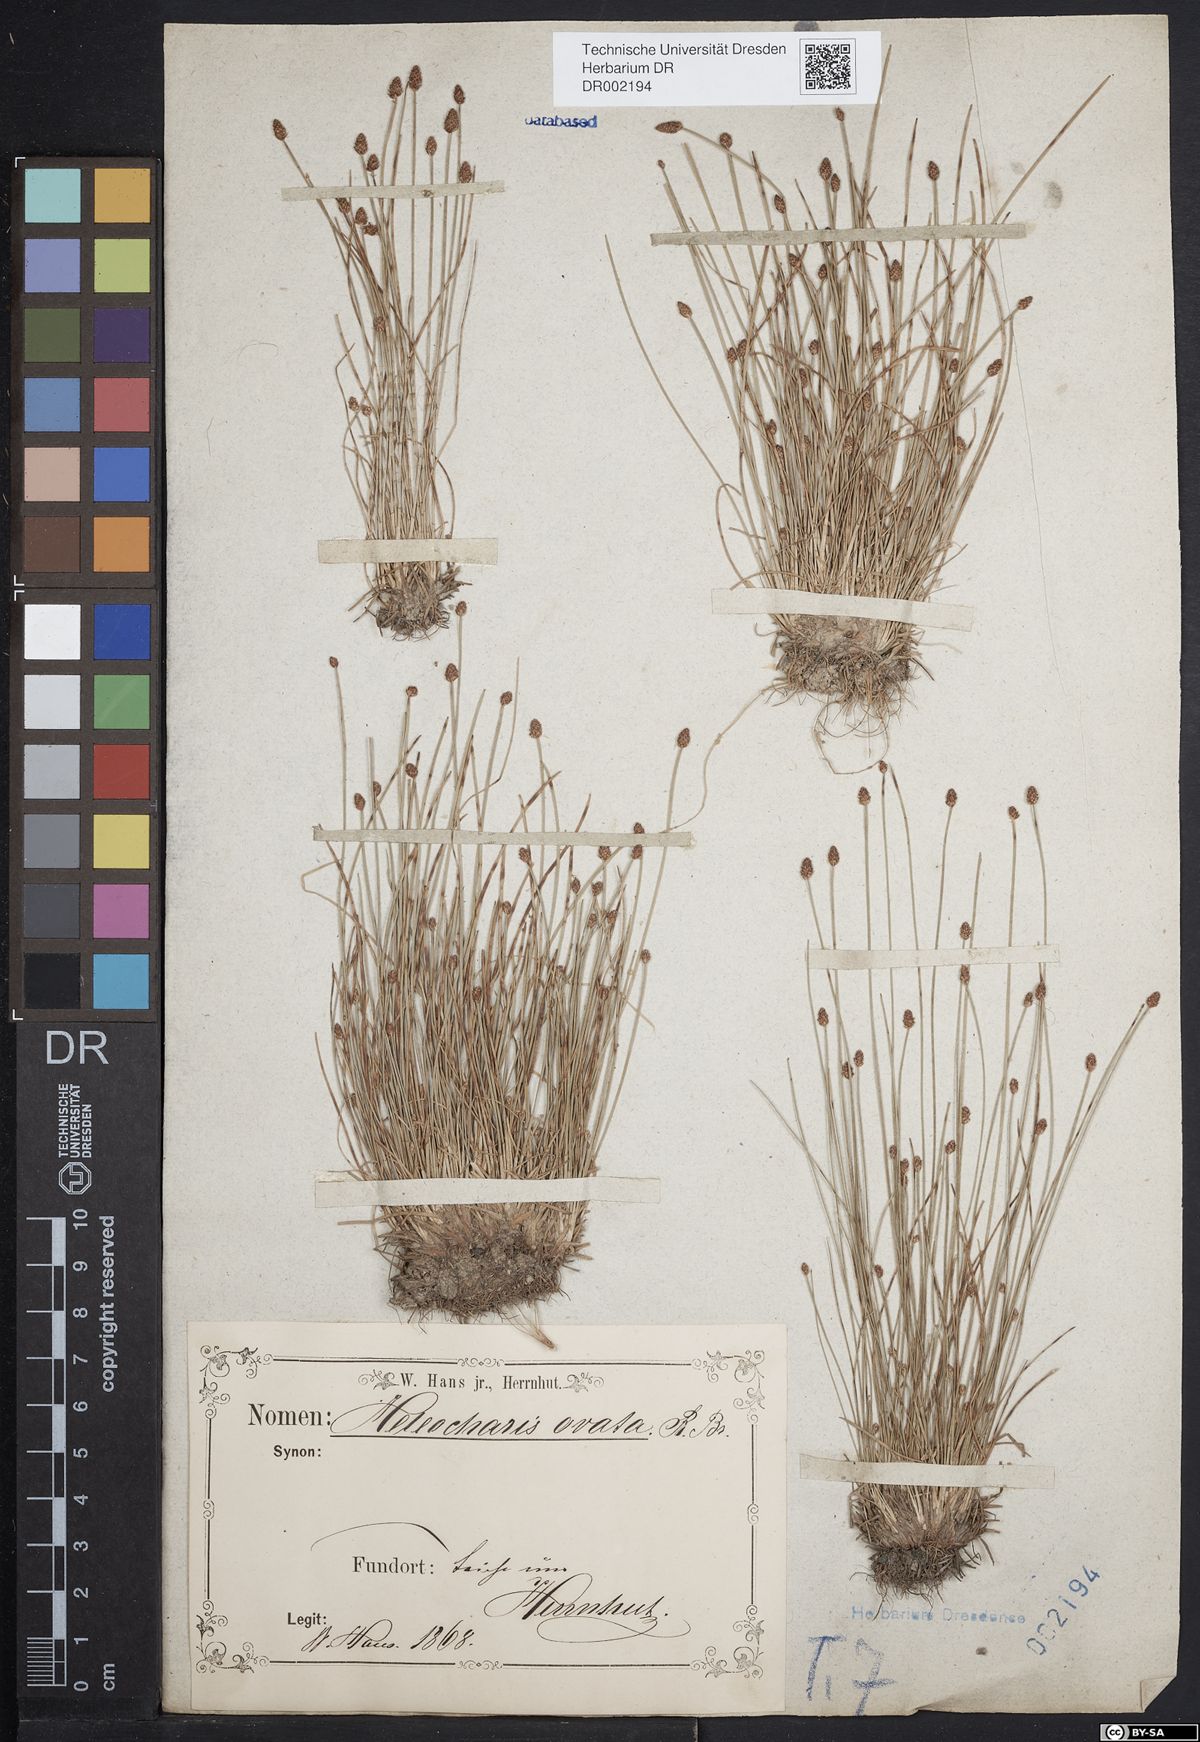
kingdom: Plantae
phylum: Tracheophyta
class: Liliopsida
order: Poales
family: Cyperaceae
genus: Eleocharis
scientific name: Eleocharis ovata
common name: Oval spike-rush
